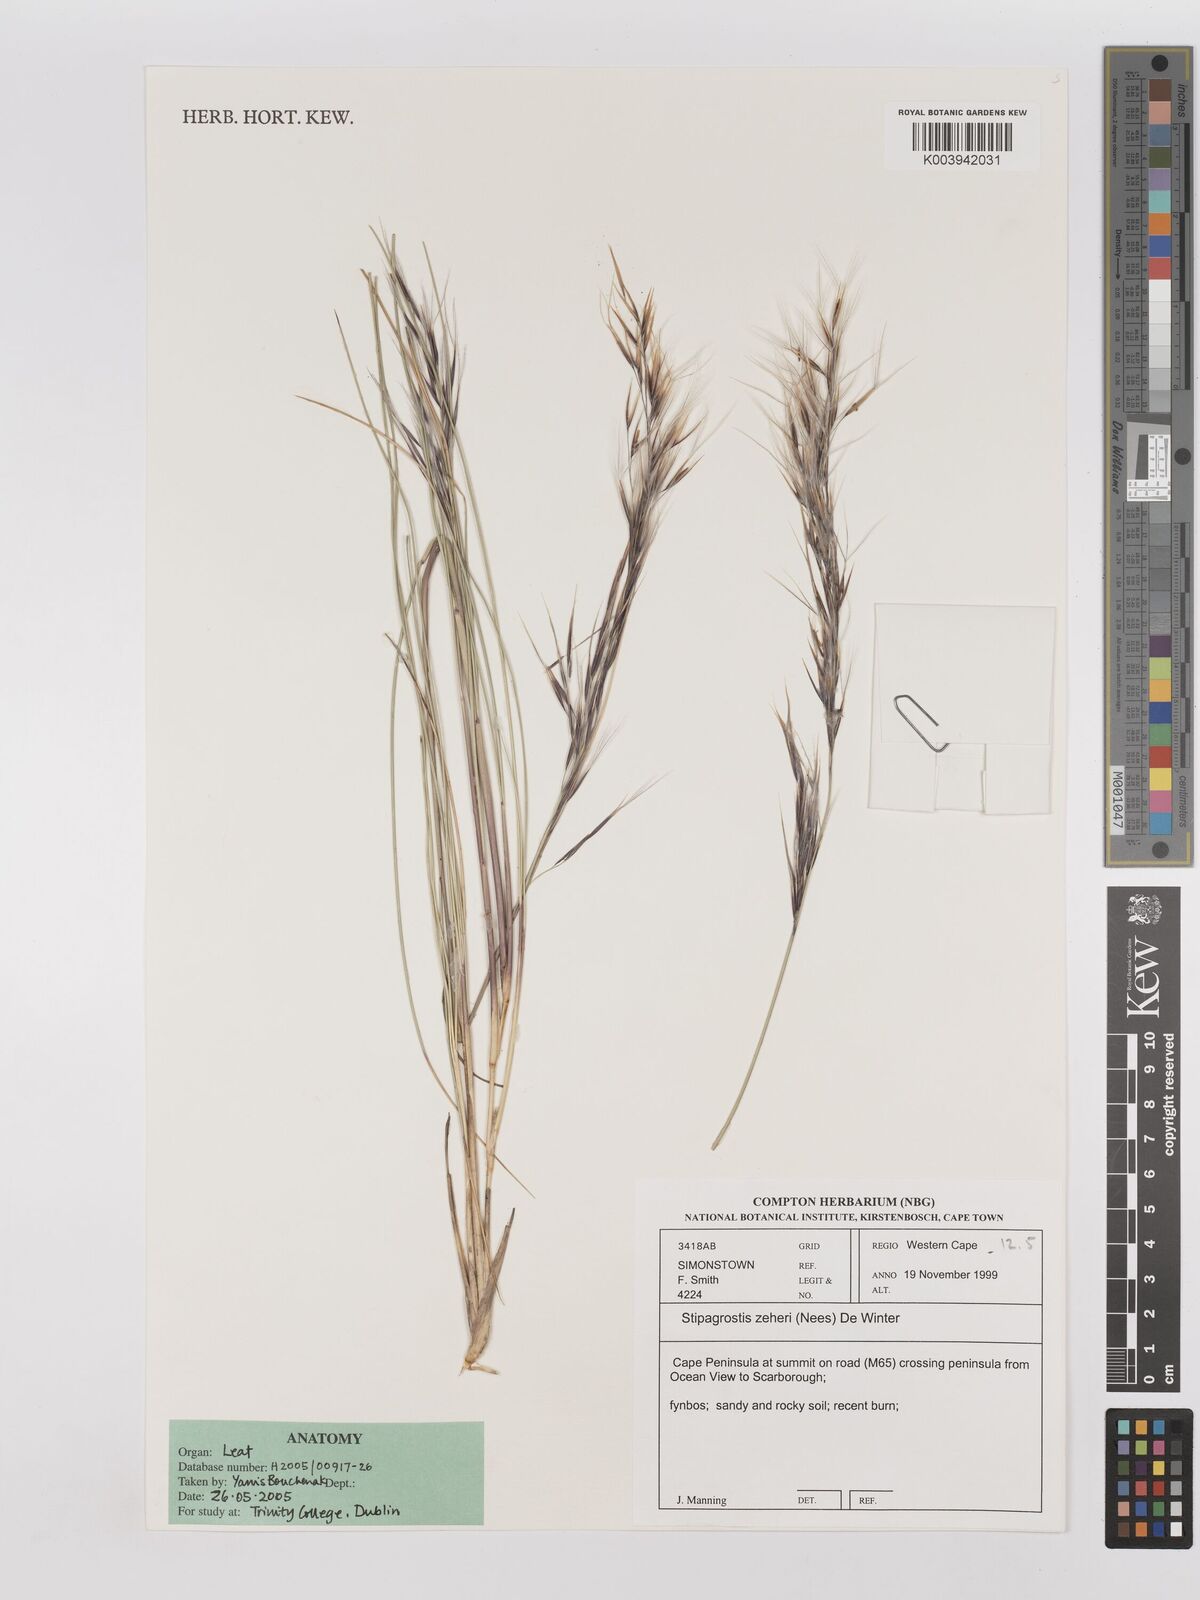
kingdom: Plantae
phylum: Tracheophyta
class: Liliopsida
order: Poales
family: Poaceae
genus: Stipagrostis
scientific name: Stipagrostis zeyheri
